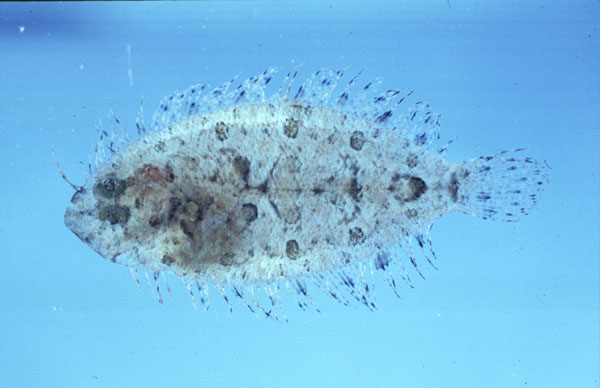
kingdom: Animalia
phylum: Chordata
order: Pleuronectiformes
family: Bothidae
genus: Asterorhombus
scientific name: Asterorhombus intermedius
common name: Intermediate flounder
